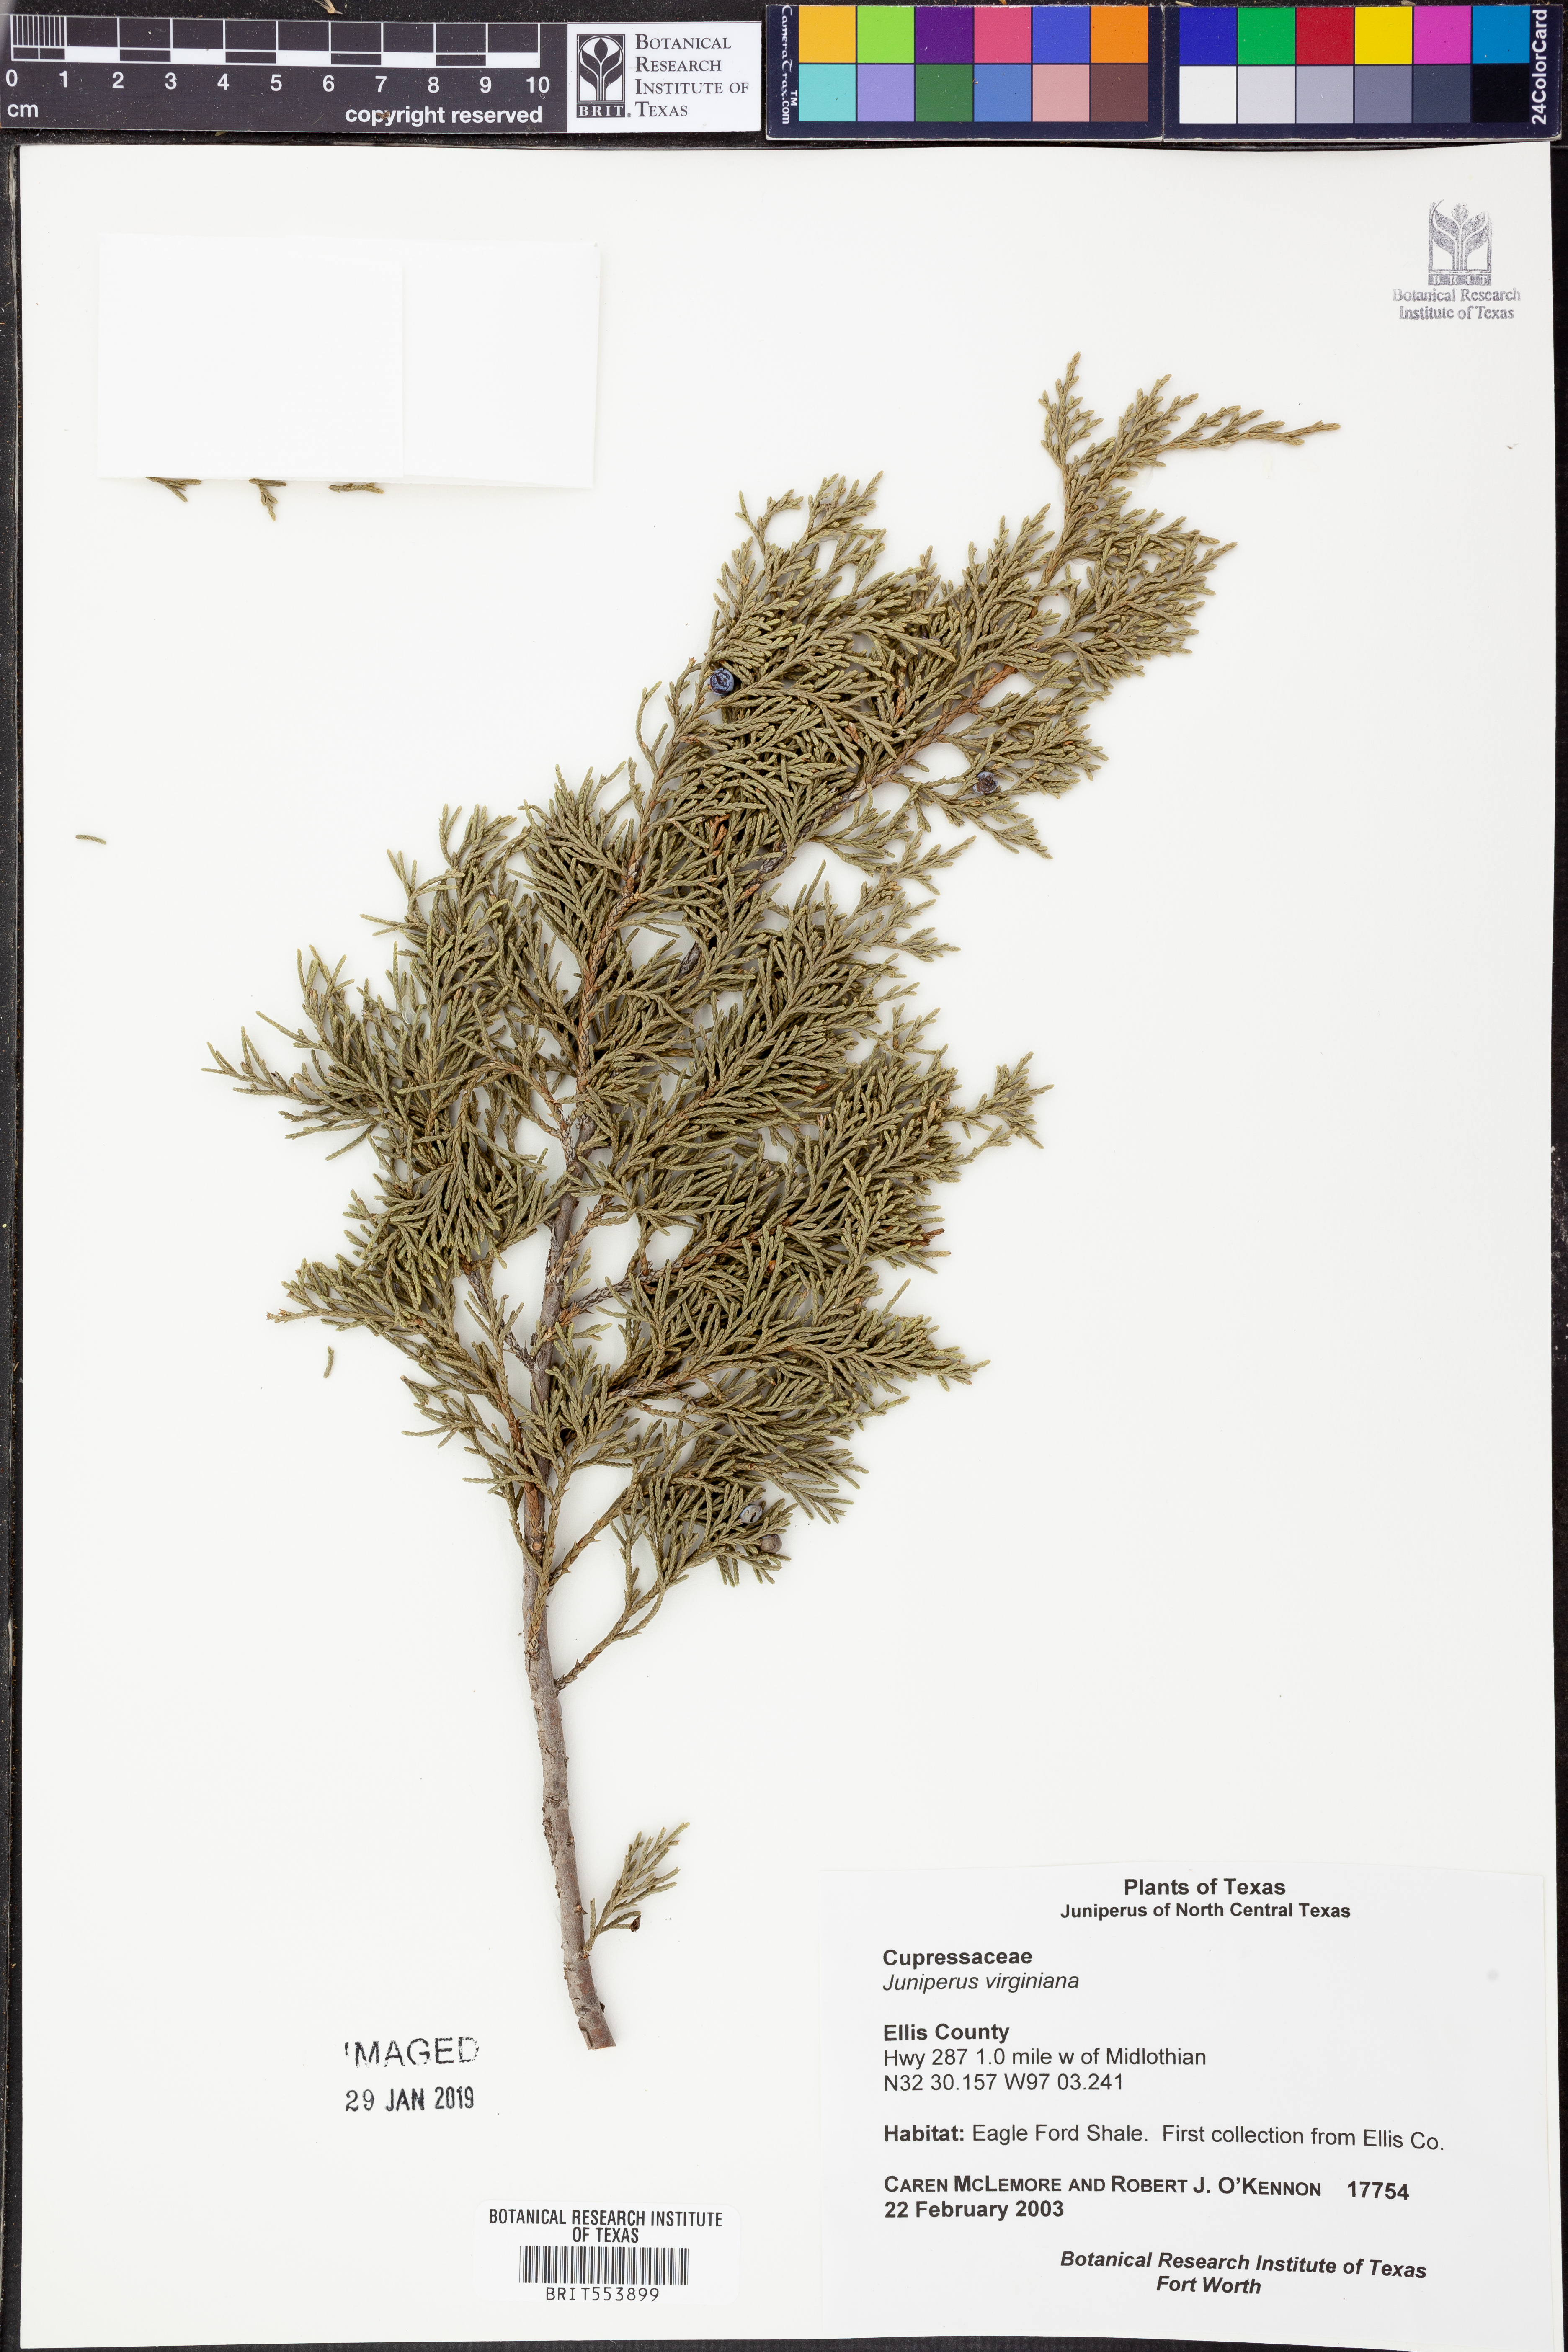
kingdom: Plantae
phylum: Tracheophyta
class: Pinopsida
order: Pinales
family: Cupressaceae
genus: Juniperus
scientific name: Juniperus virginiana
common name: Red juniper
